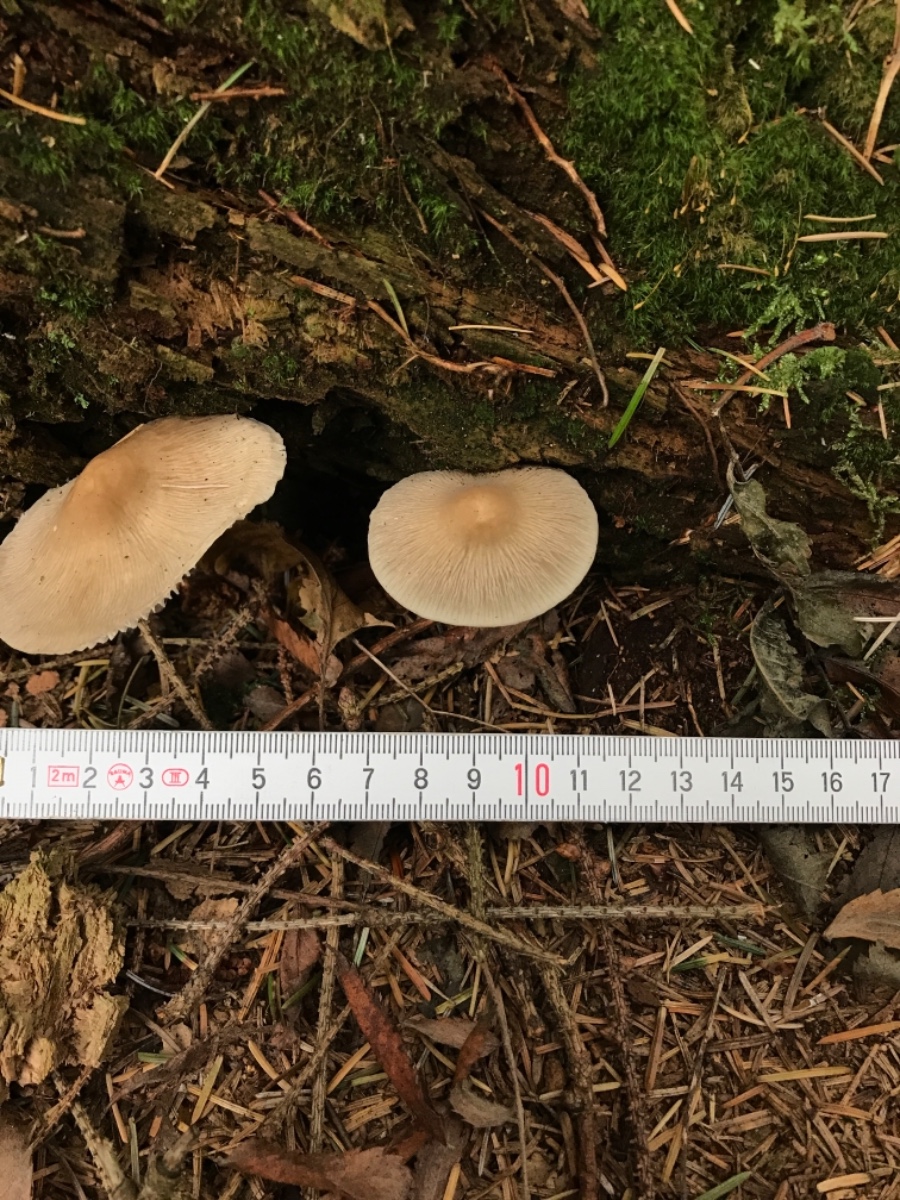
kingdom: Fungi
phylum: Basidiomycota
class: Agaricomycetes
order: Agaricales
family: Mycenaceae
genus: Mycena
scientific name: Mycena galericulata
